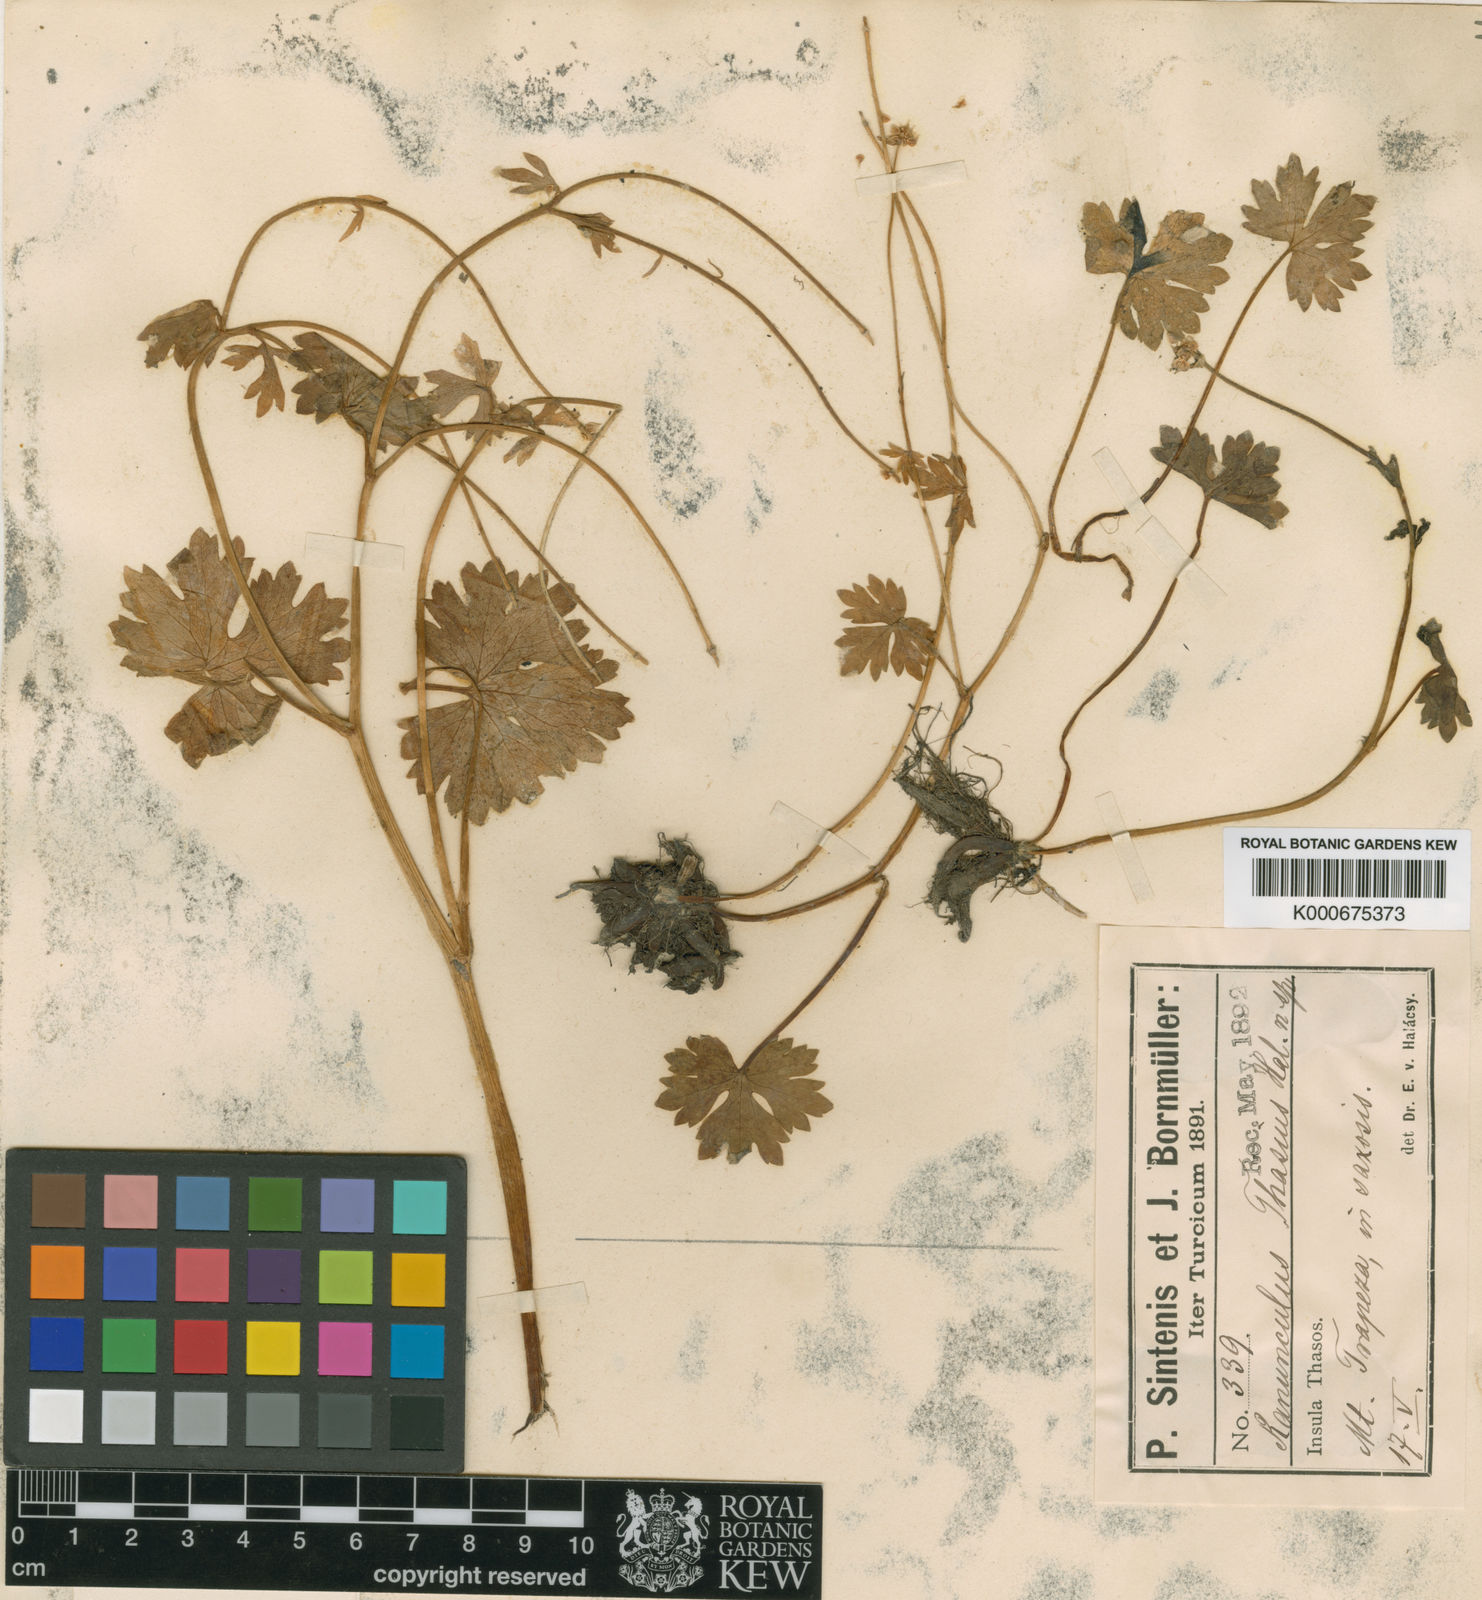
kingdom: Plantae
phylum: Tracheophyta
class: Magnoliopsida
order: Ranunculales
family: Ranunculaceae
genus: Ranunculus
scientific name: Ranunculus
